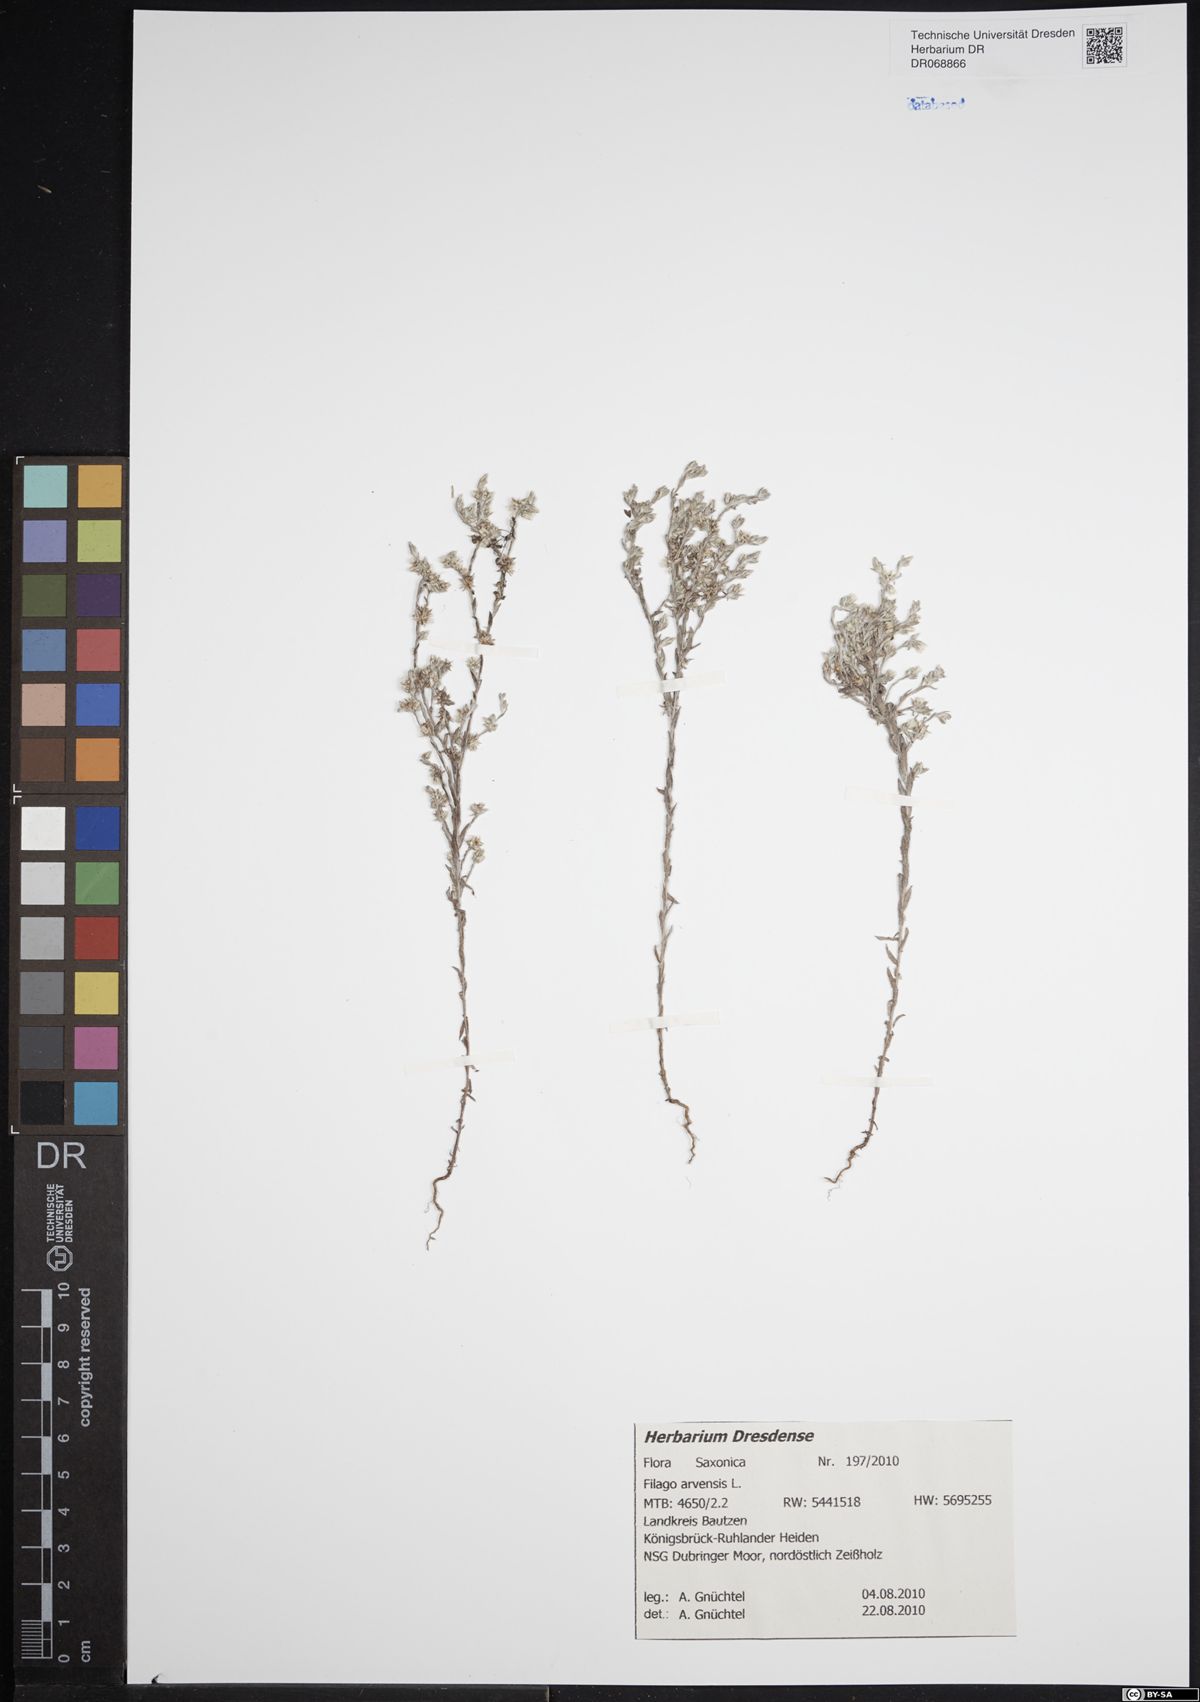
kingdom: Plantae
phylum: Tracheophyta
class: Magnoliopsida
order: Asterales
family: Asteraceae
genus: Filago
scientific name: Filago arvensis
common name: Field cudweed
